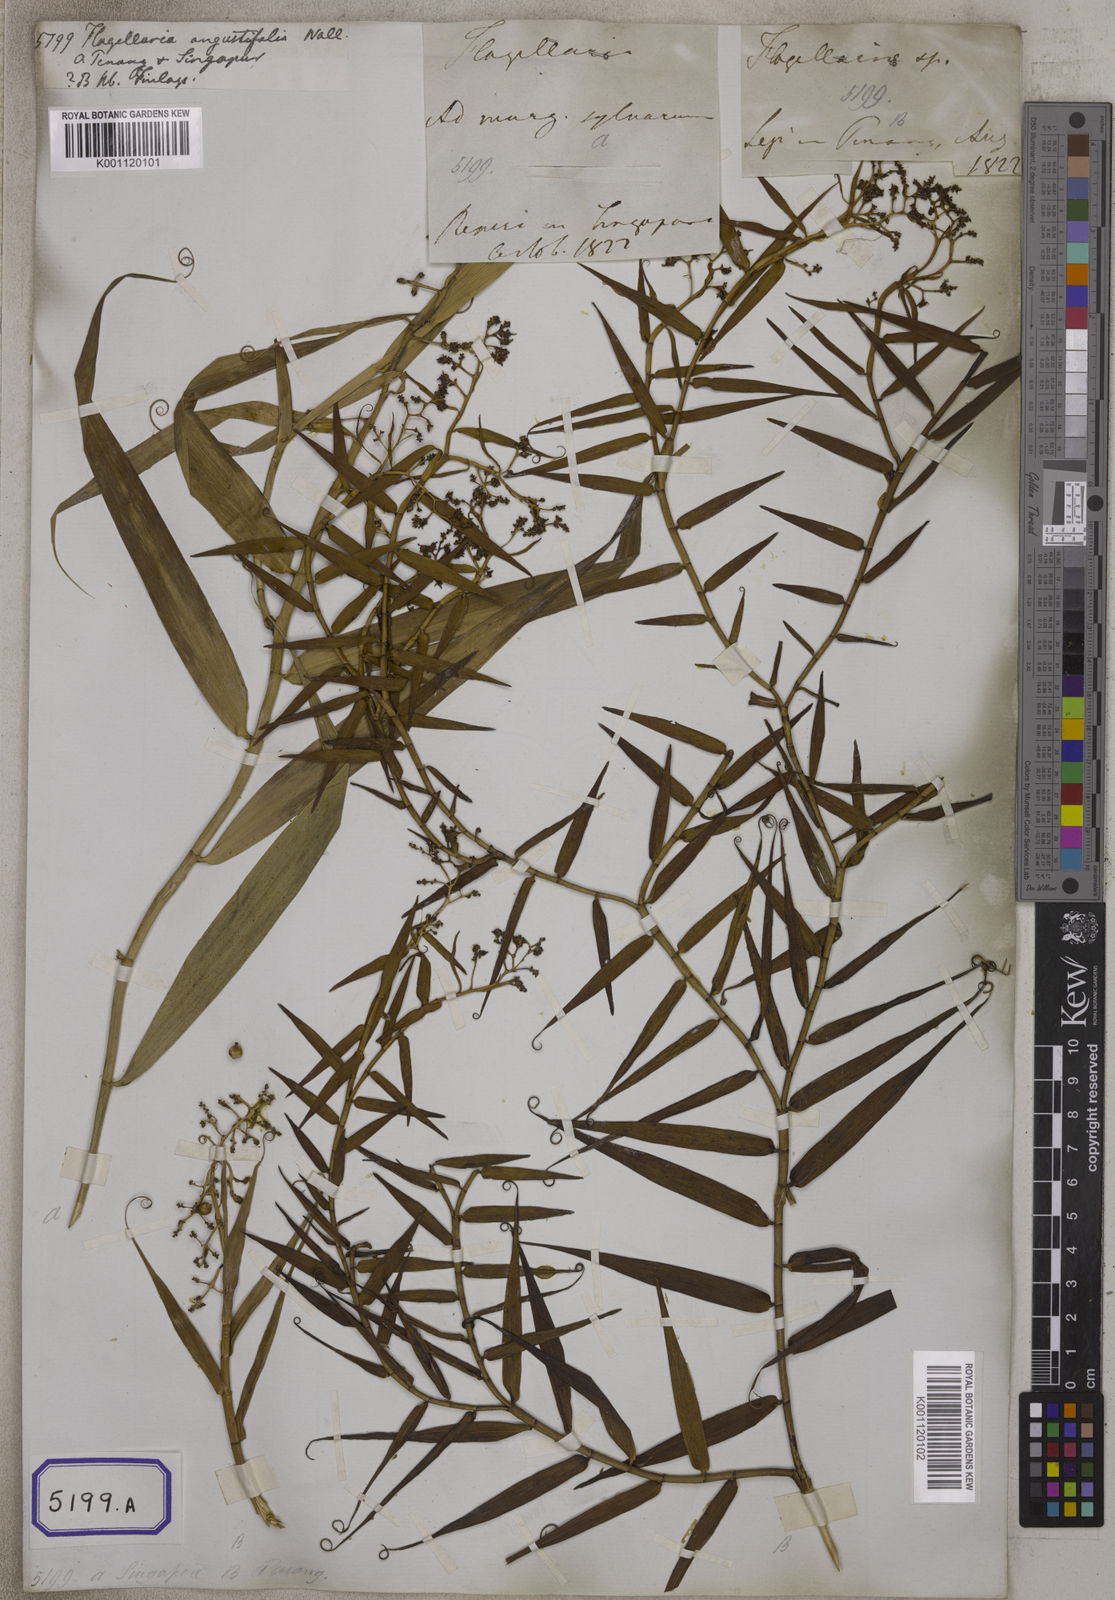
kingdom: Plantae
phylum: Tracheophyta
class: Liliopsida
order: Poales
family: Flagellariaceae
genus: Flagellaria
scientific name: Flagellaria indica
